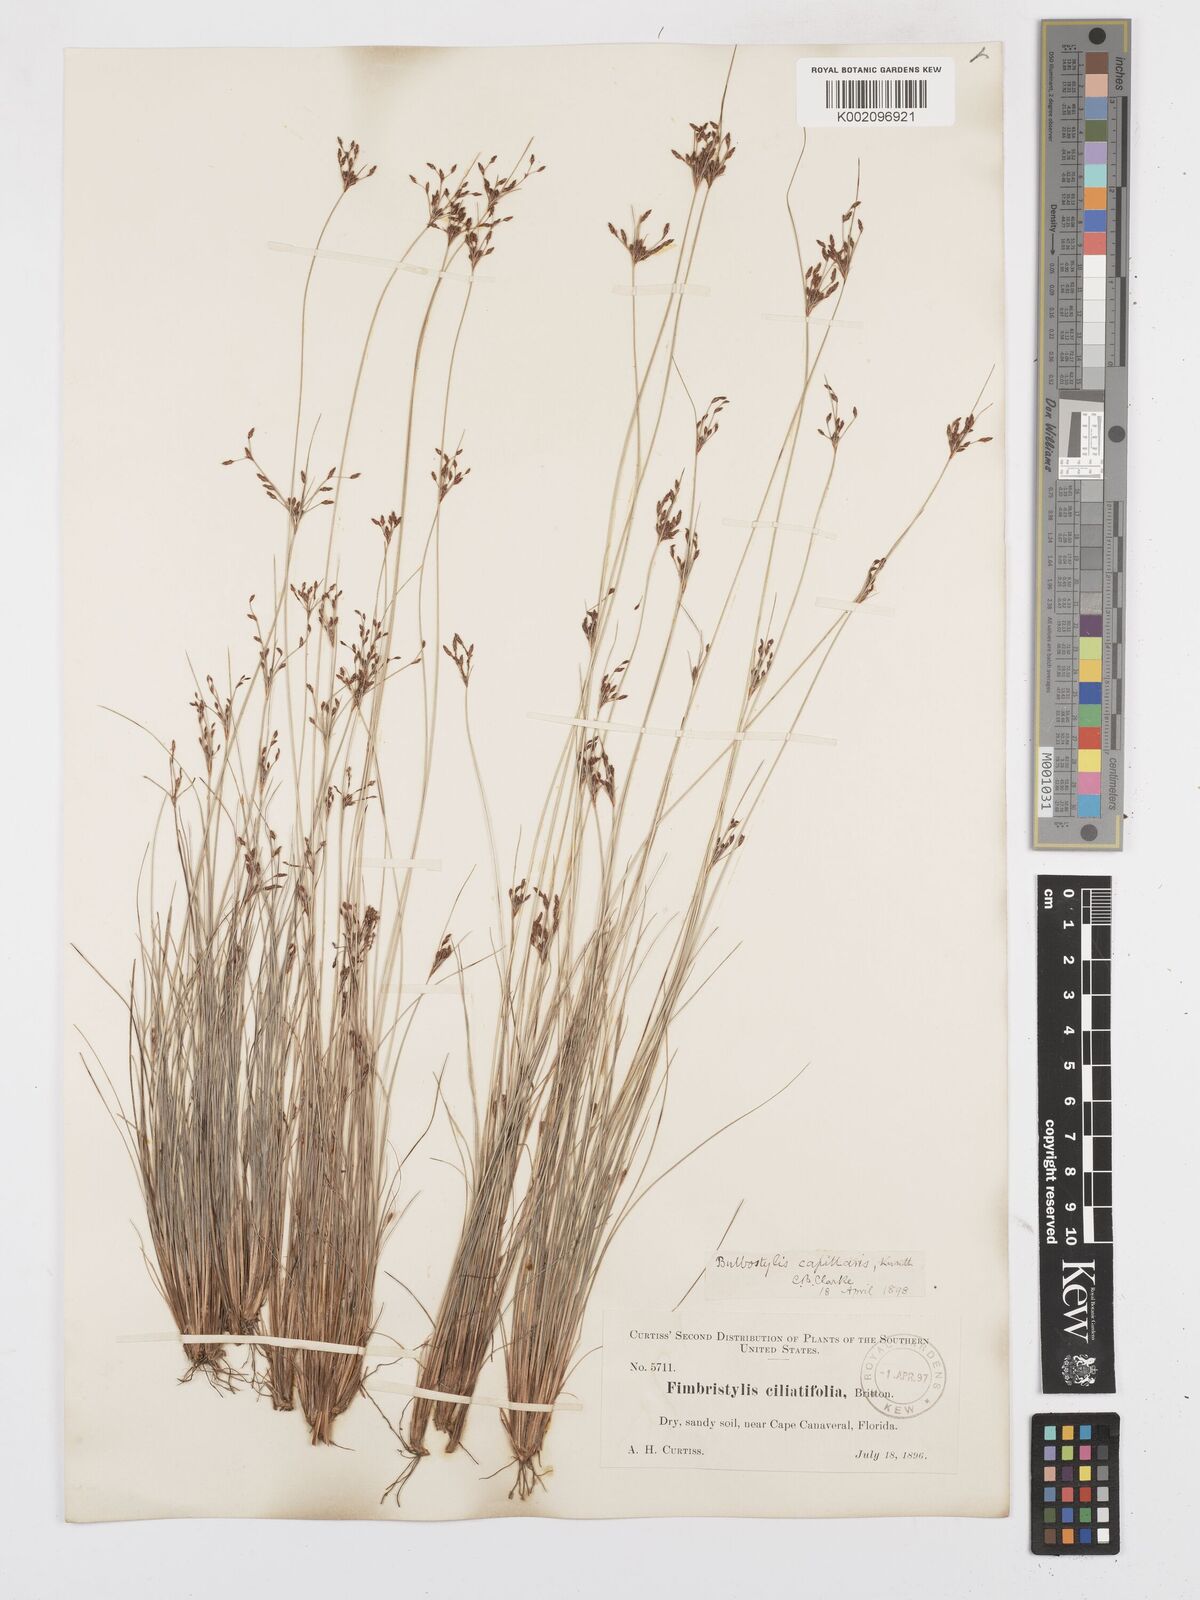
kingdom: Plantae
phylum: Tracheophyta
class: Liliopsida
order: Poales
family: Cyperaceae
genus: Bulbostylis
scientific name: Bulbostylis ciliatifolia
